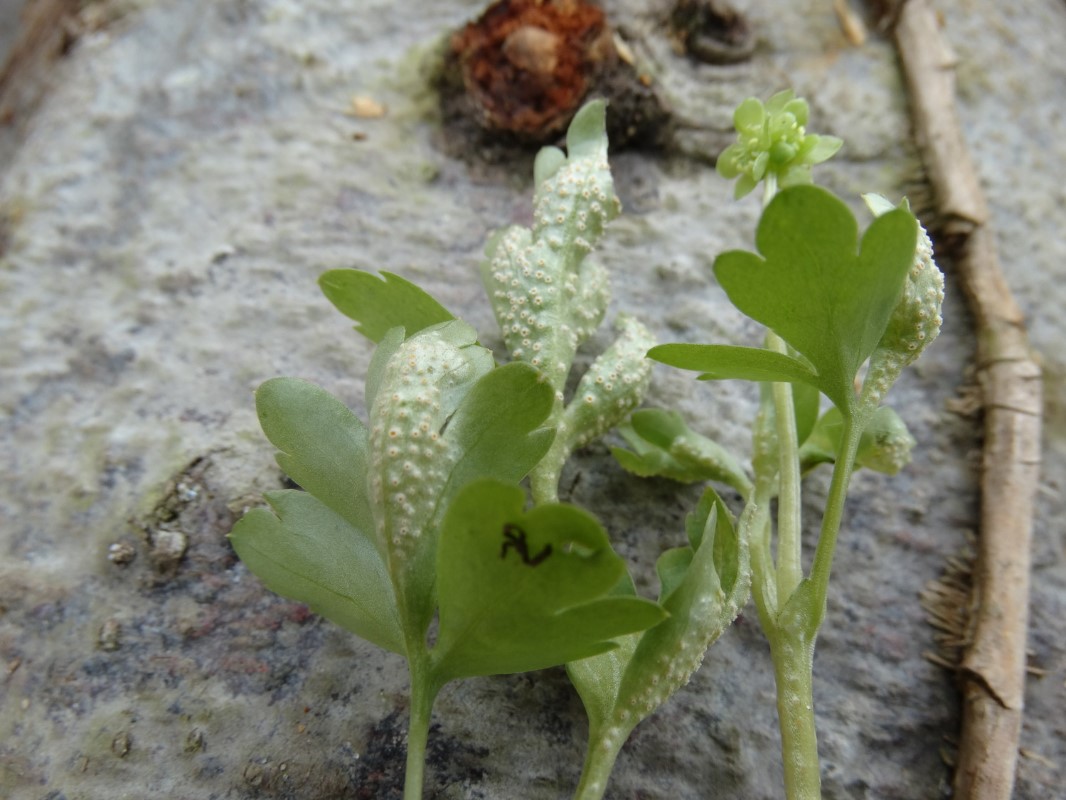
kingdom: Fungi
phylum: Basidiomycota
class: Pucciniomycetes
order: Pucciniales
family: Pucciniaceae
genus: Puccinia
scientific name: Puccinia albescens
